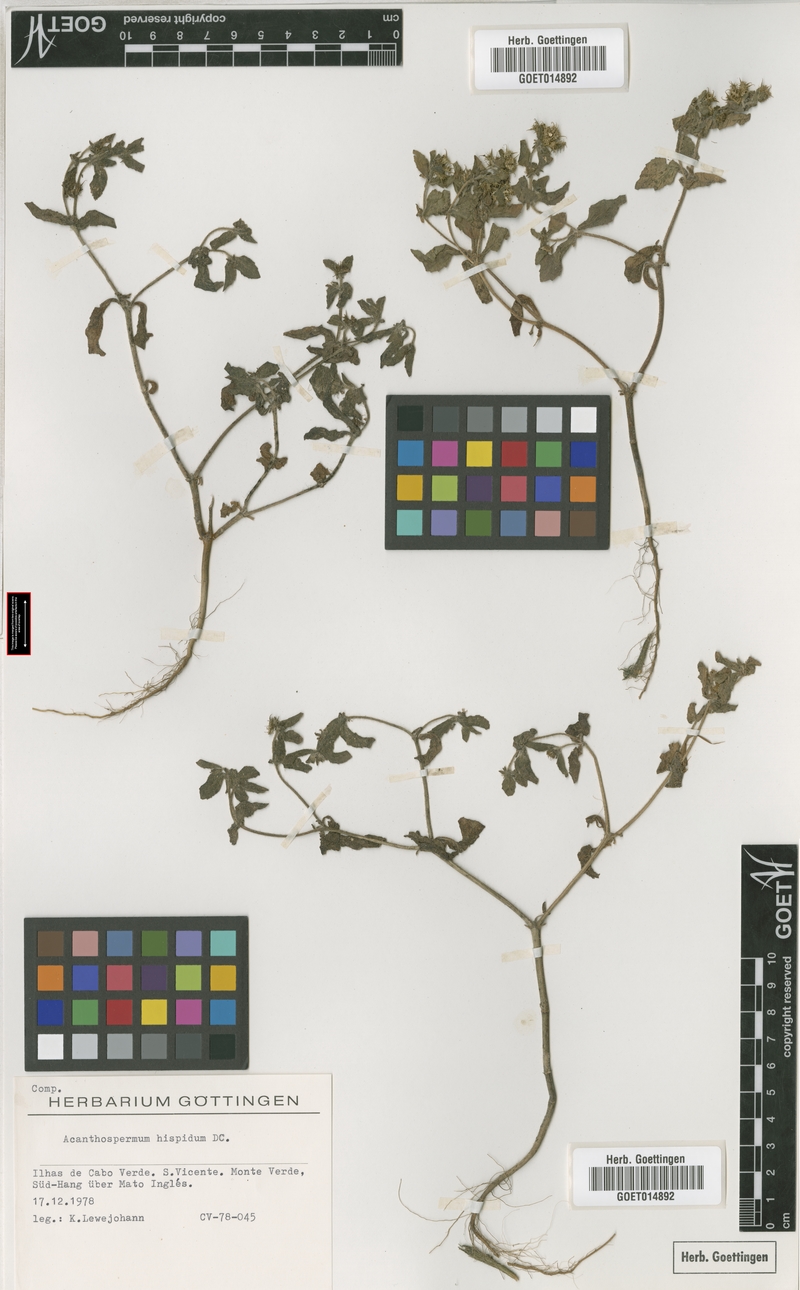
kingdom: Plantae
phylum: Tracheophyta
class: Magnoliopsida
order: Asterales
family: Asteraceae
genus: Acanthospermum
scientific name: Acanthospermum hispidum
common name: Hispid starbur
